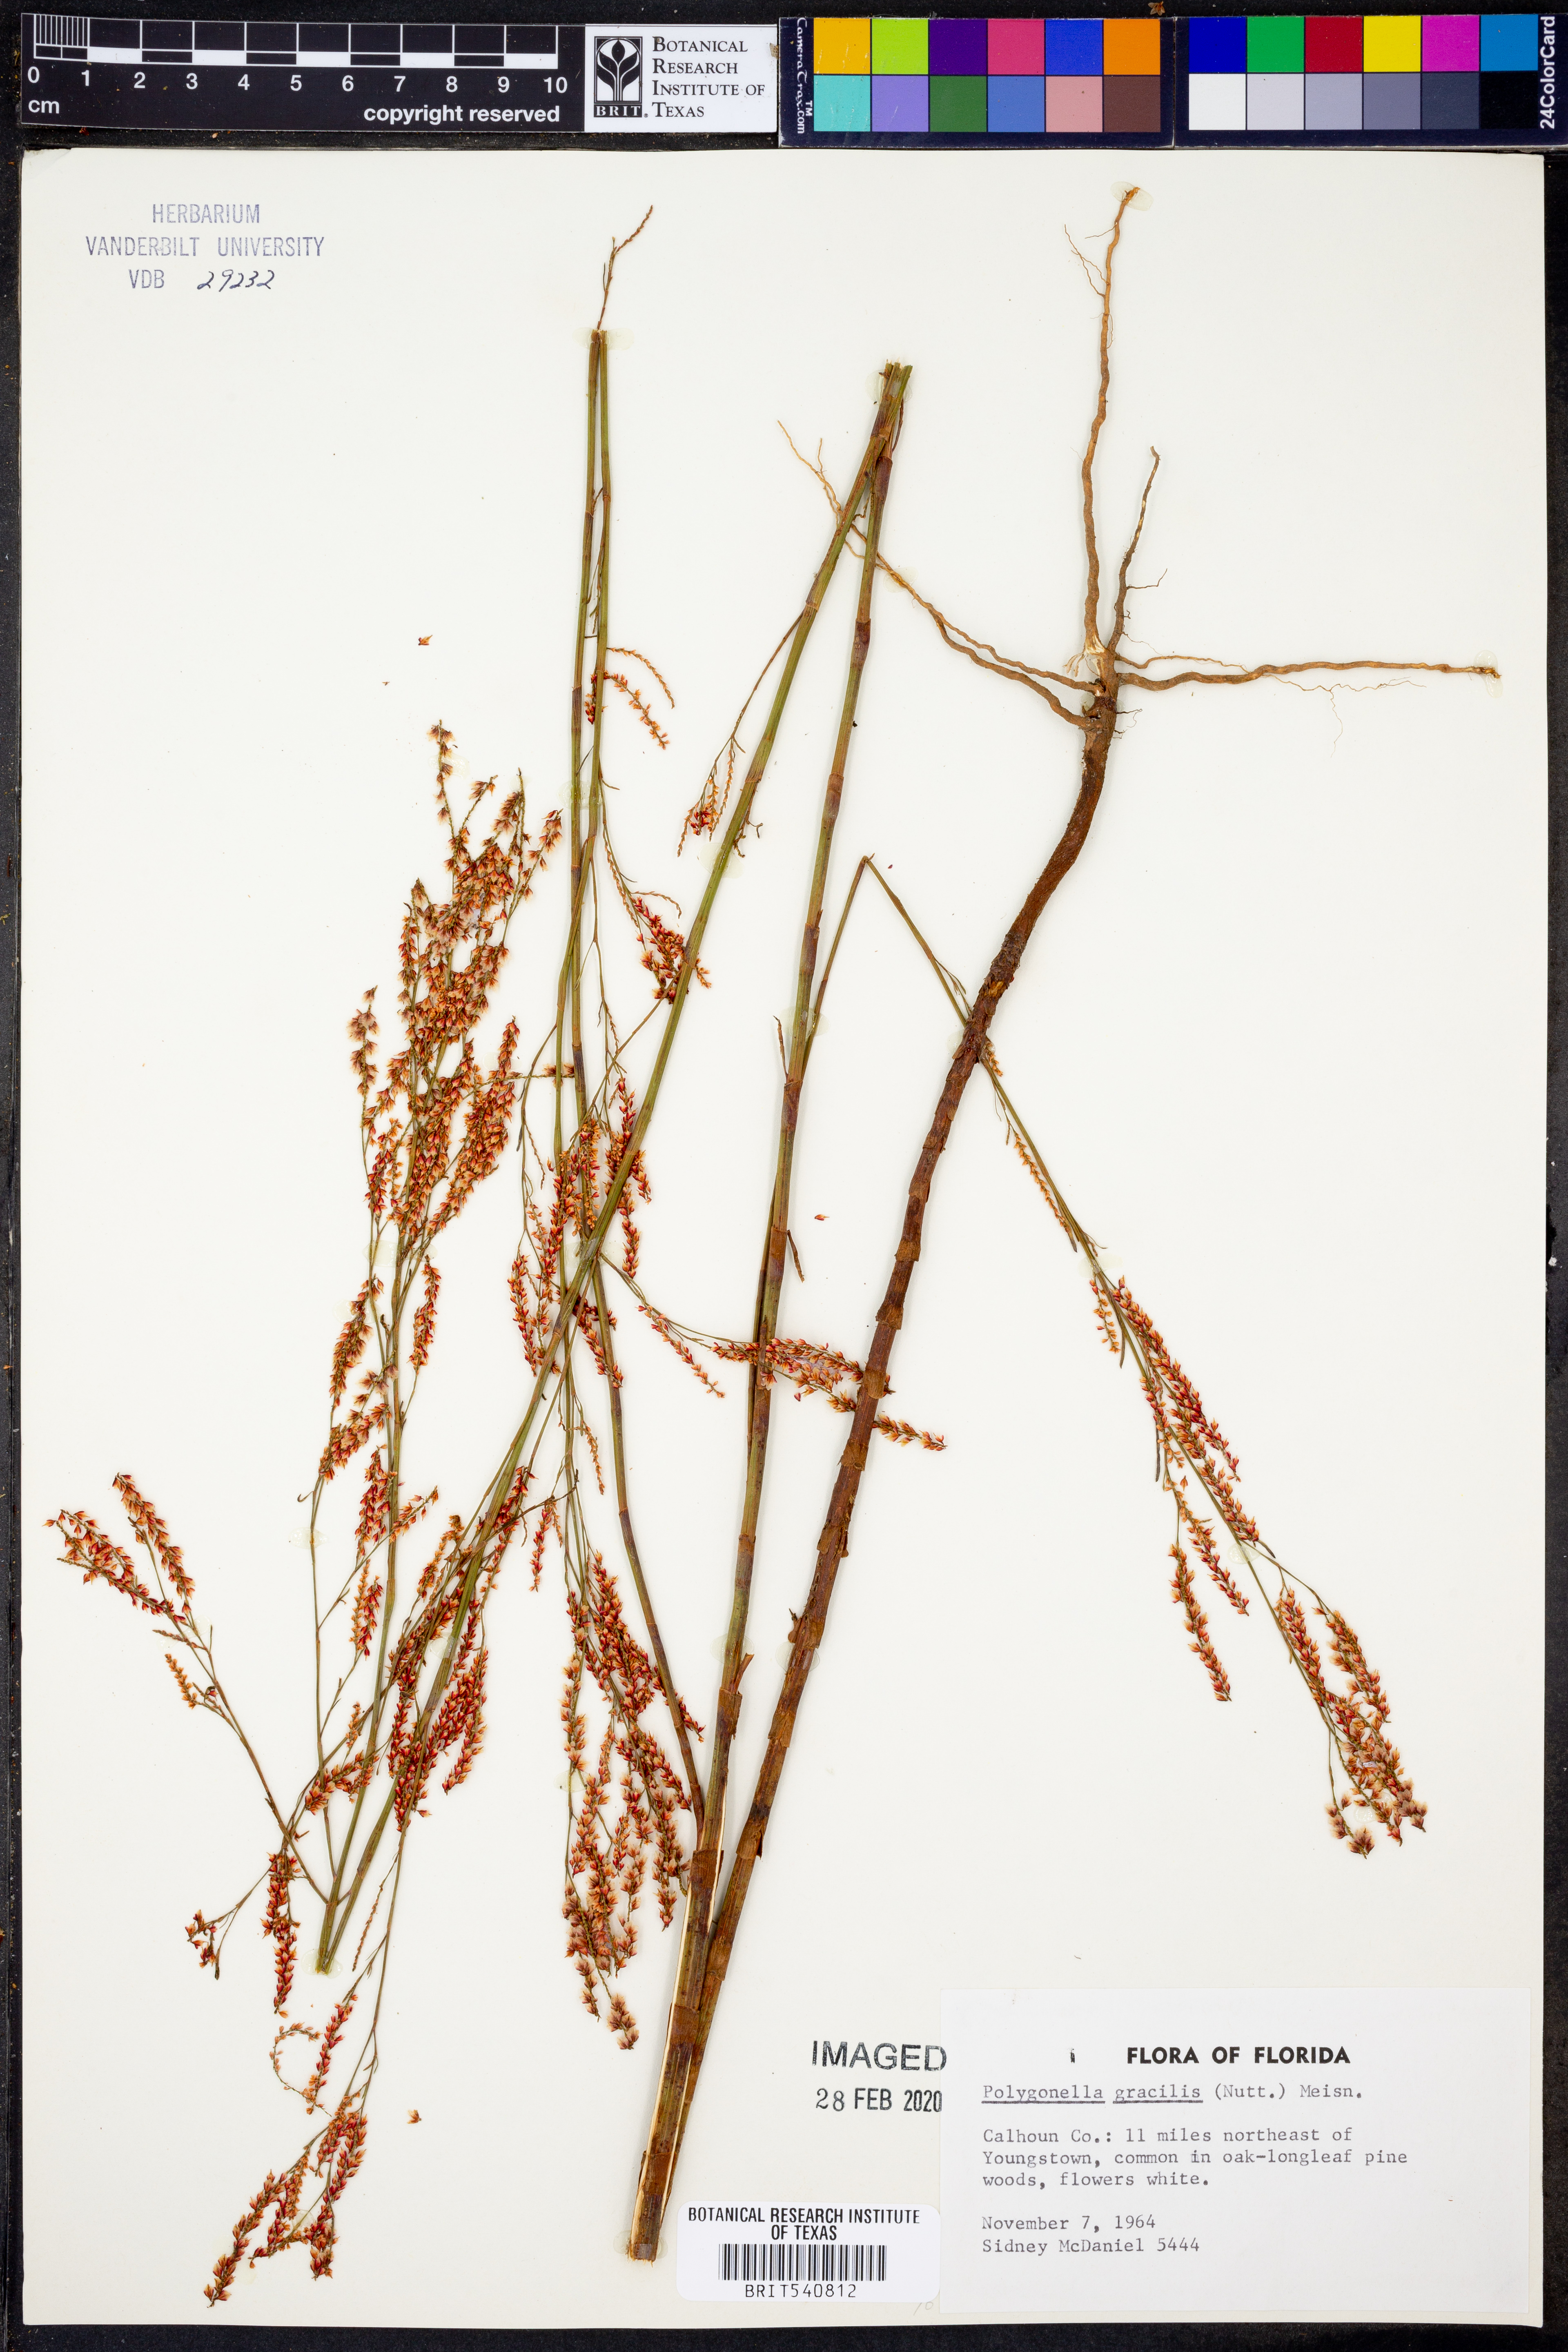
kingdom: Plantae
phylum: Tracheophyta
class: Magnoliopsida
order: Caryophyllales
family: Polygonaceae
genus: Polygonella
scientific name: Polygonella gracilis
